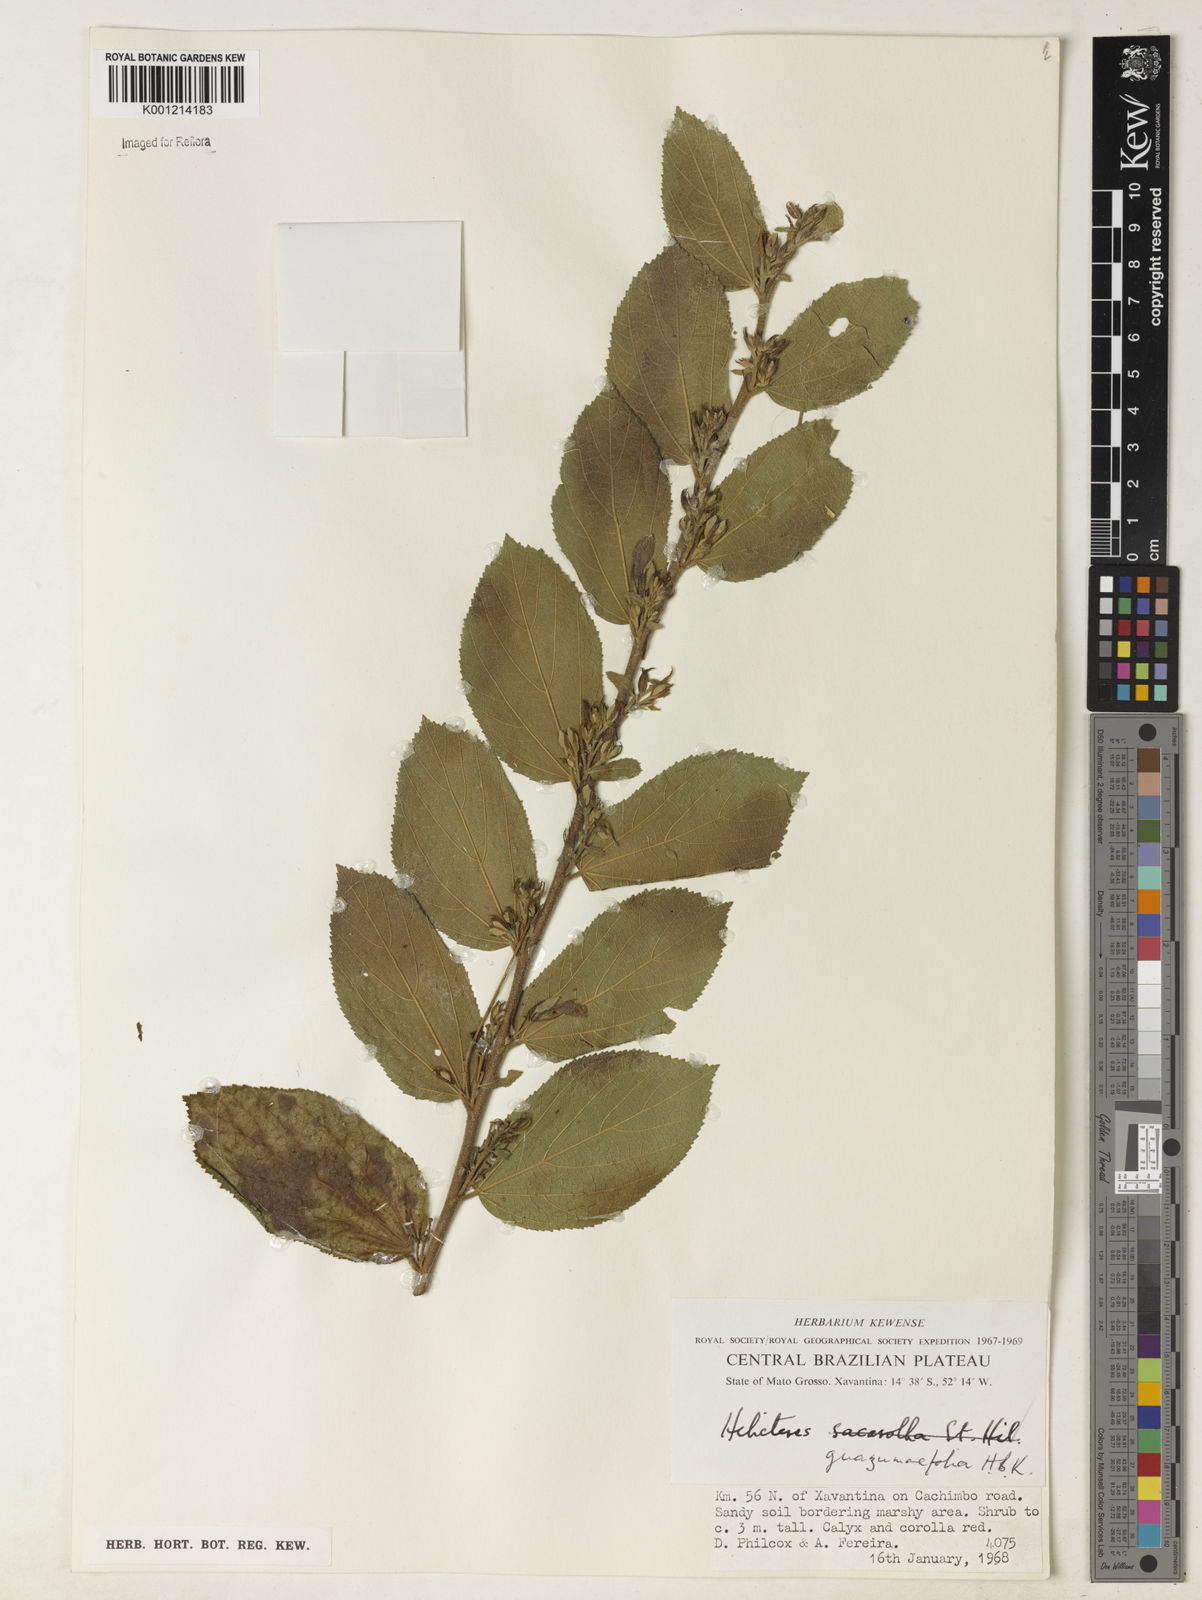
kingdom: Plantae
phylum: Tracheophyta
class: Magnoliopsida
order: Malvales
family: Malvaceae
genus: Helicteres
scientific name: Helicteres guazumifolia
